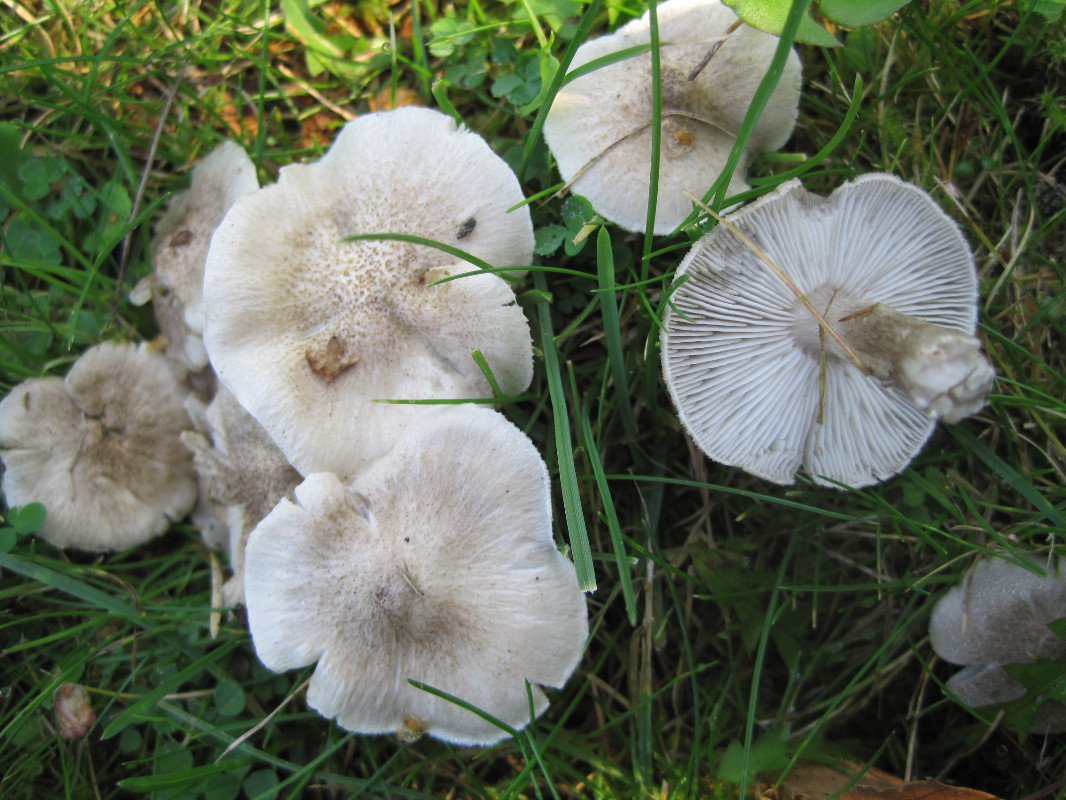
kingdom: Fungi
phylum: Basidiomycota
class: Agaricomycetes
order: Agaricales
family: Tricholomataceae
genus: Tricholoma
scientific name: Tricholoma argyraceum
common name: spids ridderhat
